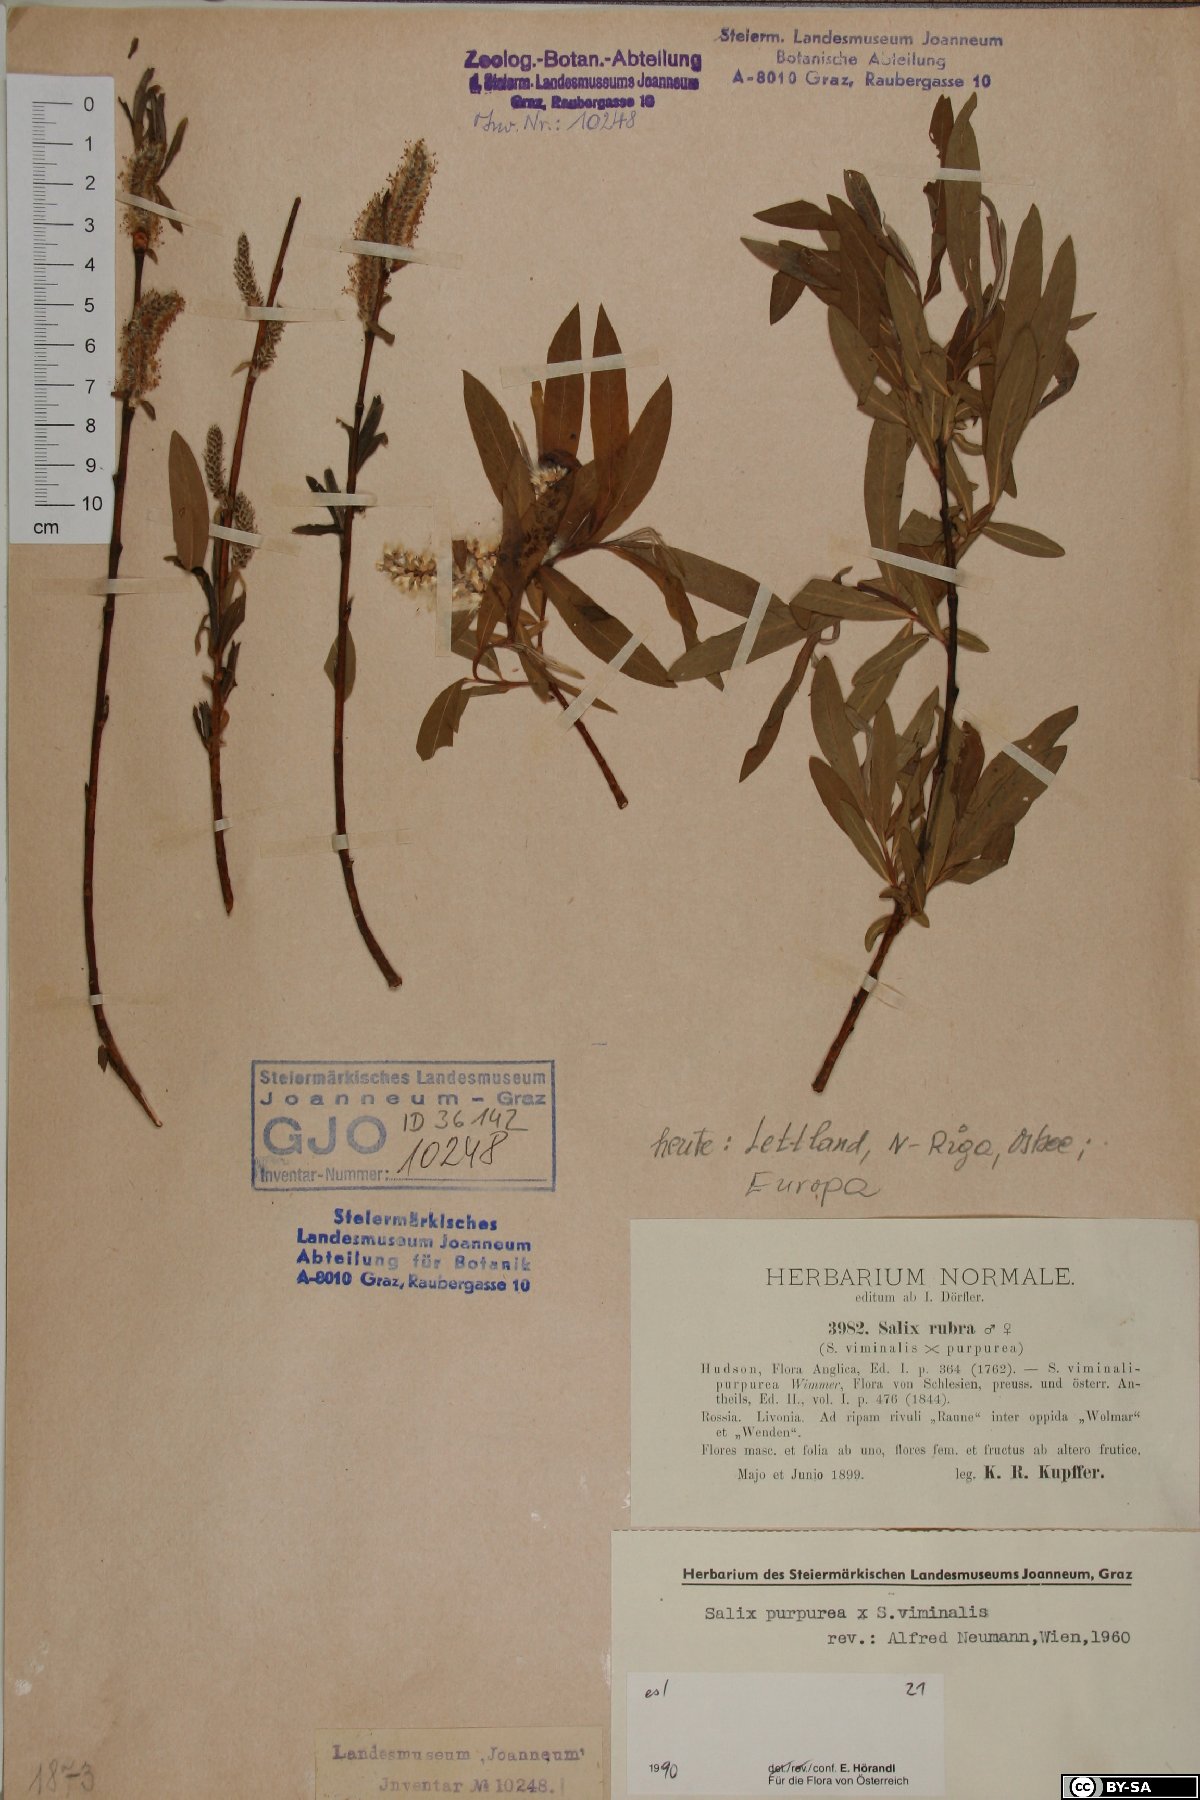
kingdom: Plantae
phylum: Tracheophyta
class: Magnoliopsida
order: Malpighiales
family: Salicaceae
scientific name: Salicaceae
